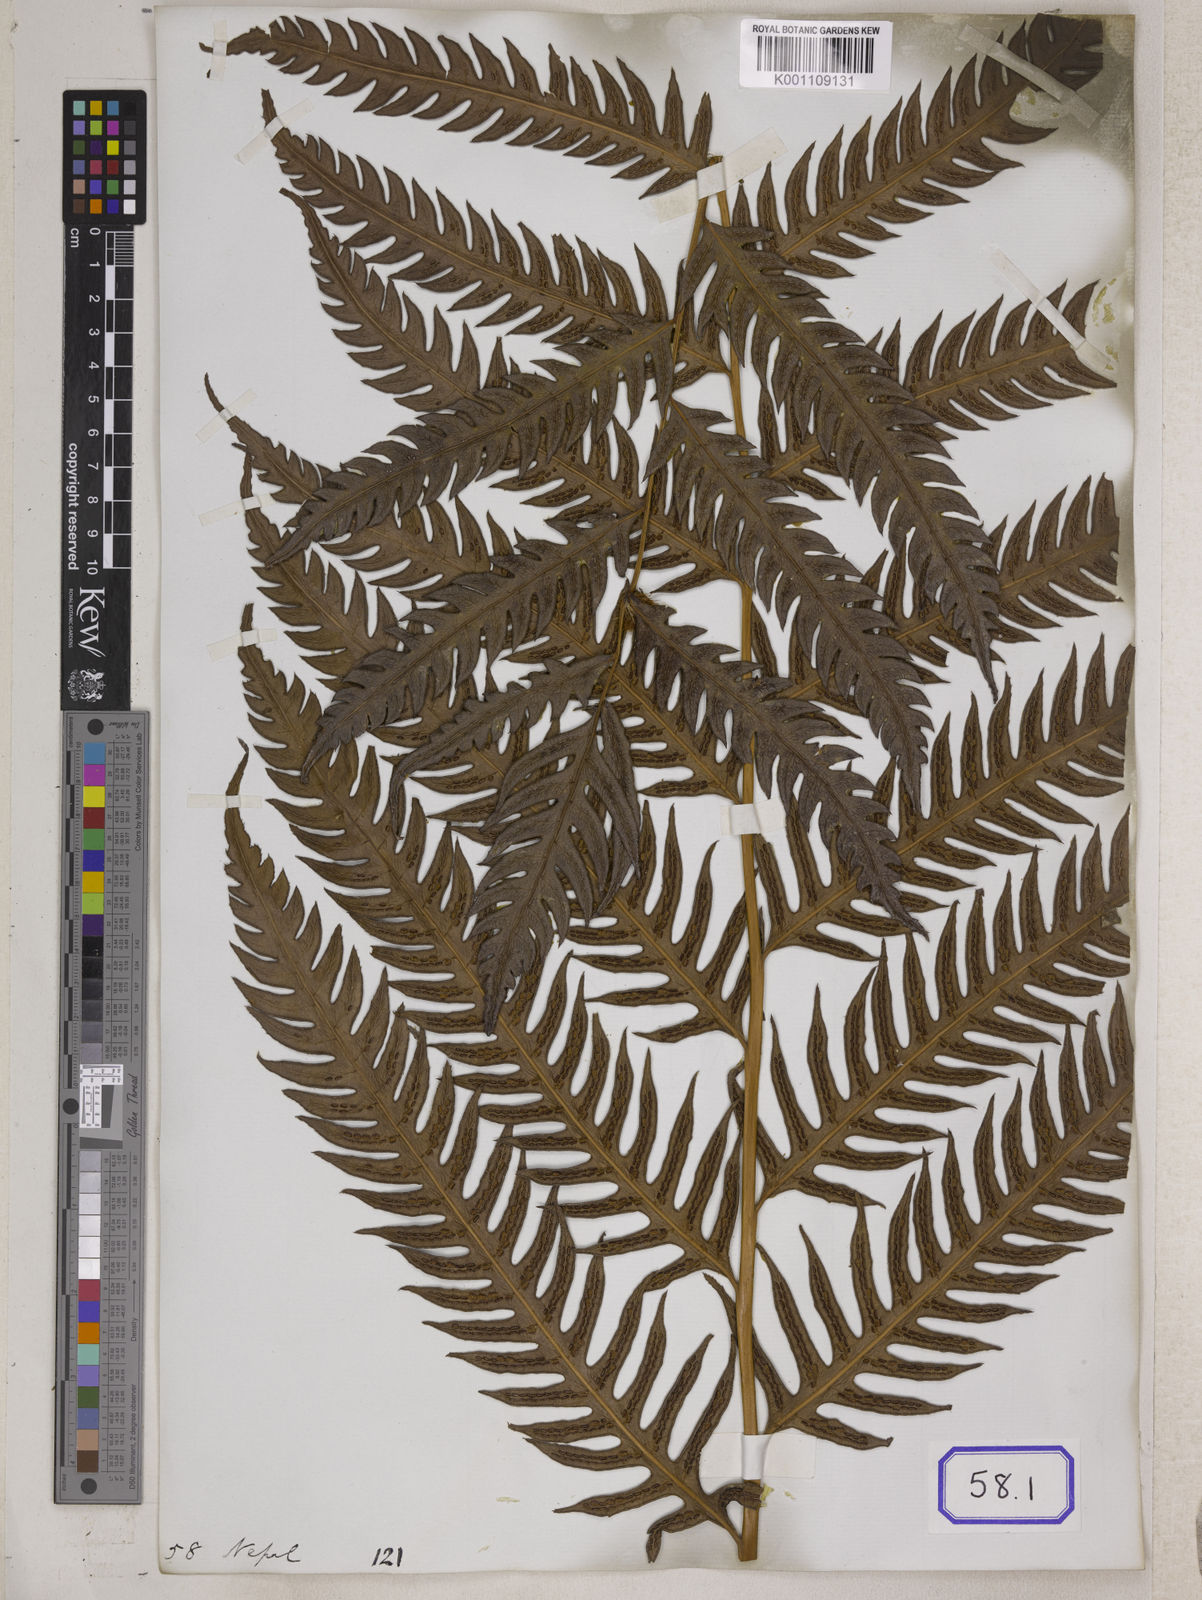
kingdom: Plantae
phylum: Tracheophyta
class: Polypodiopsida
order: Polypodiales
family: Blechnaceae
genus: Woodwardia
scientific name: Woodwardia
